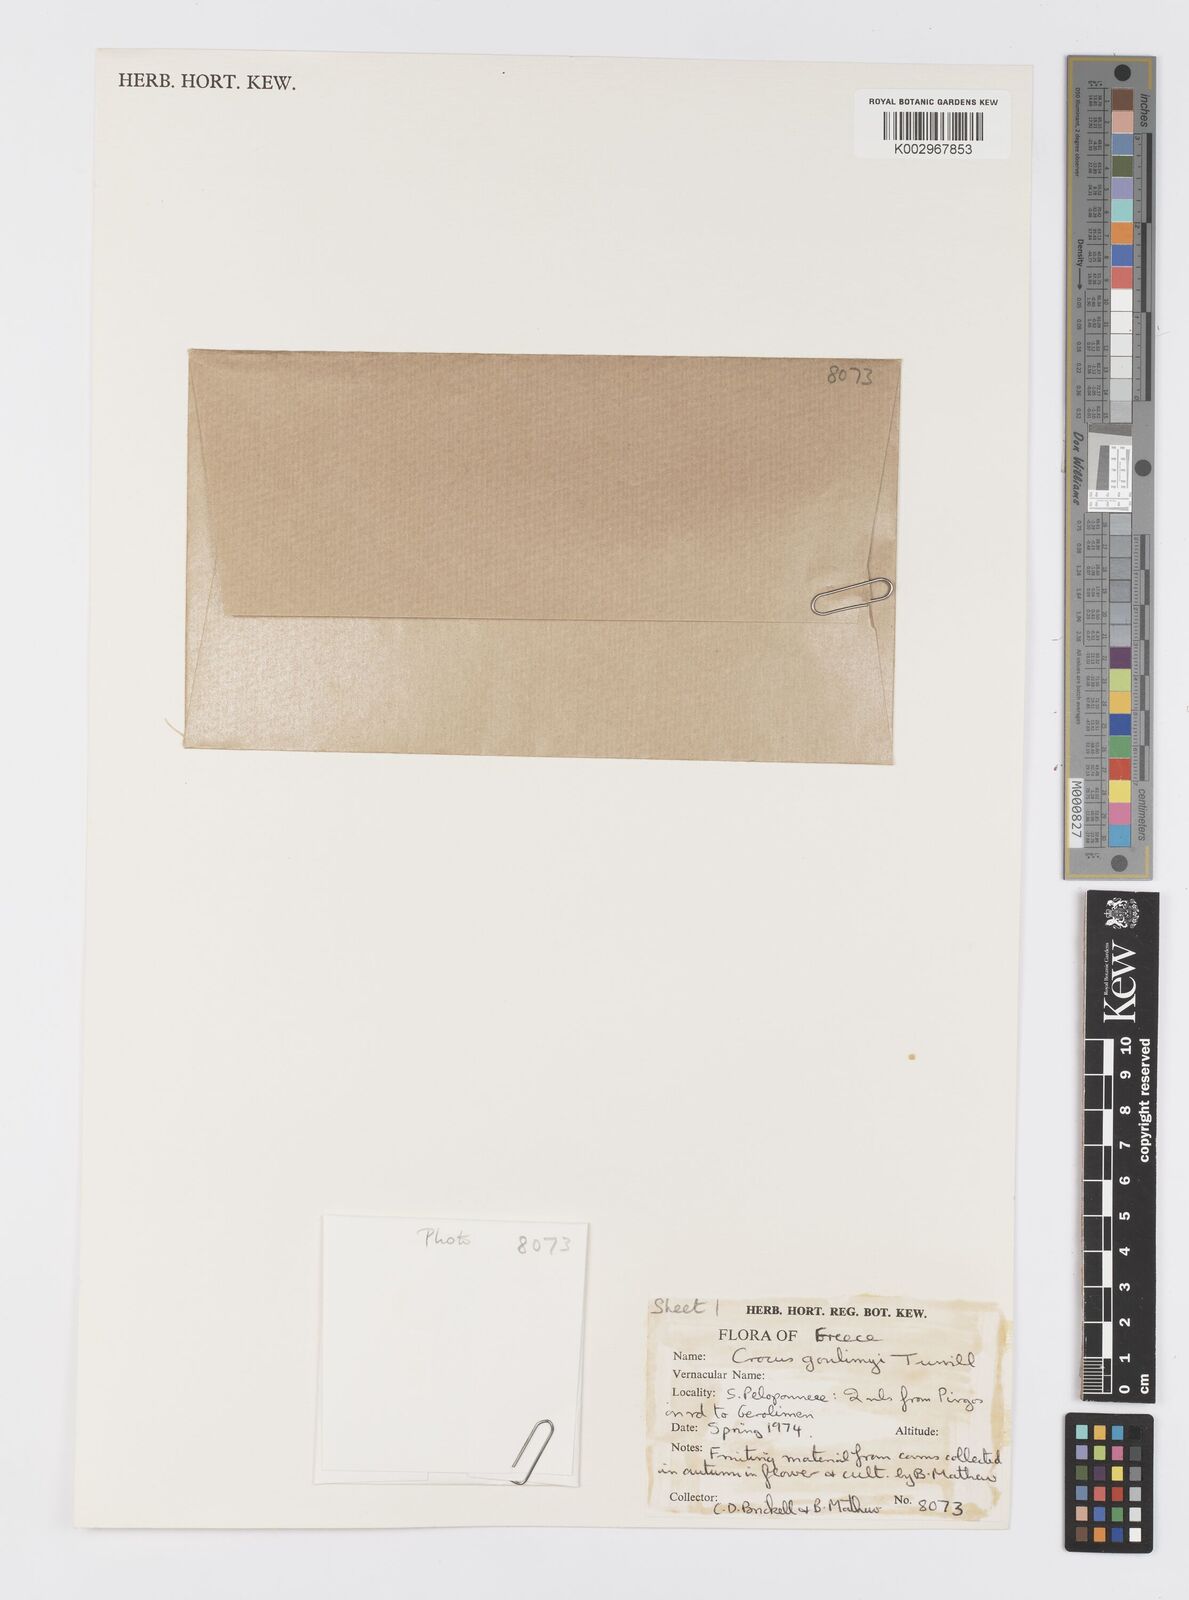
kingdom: Plantae
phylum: Tracheophyta
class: Liliopsida
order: Asparagales
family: Iridaceae
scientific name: Iridaceae
